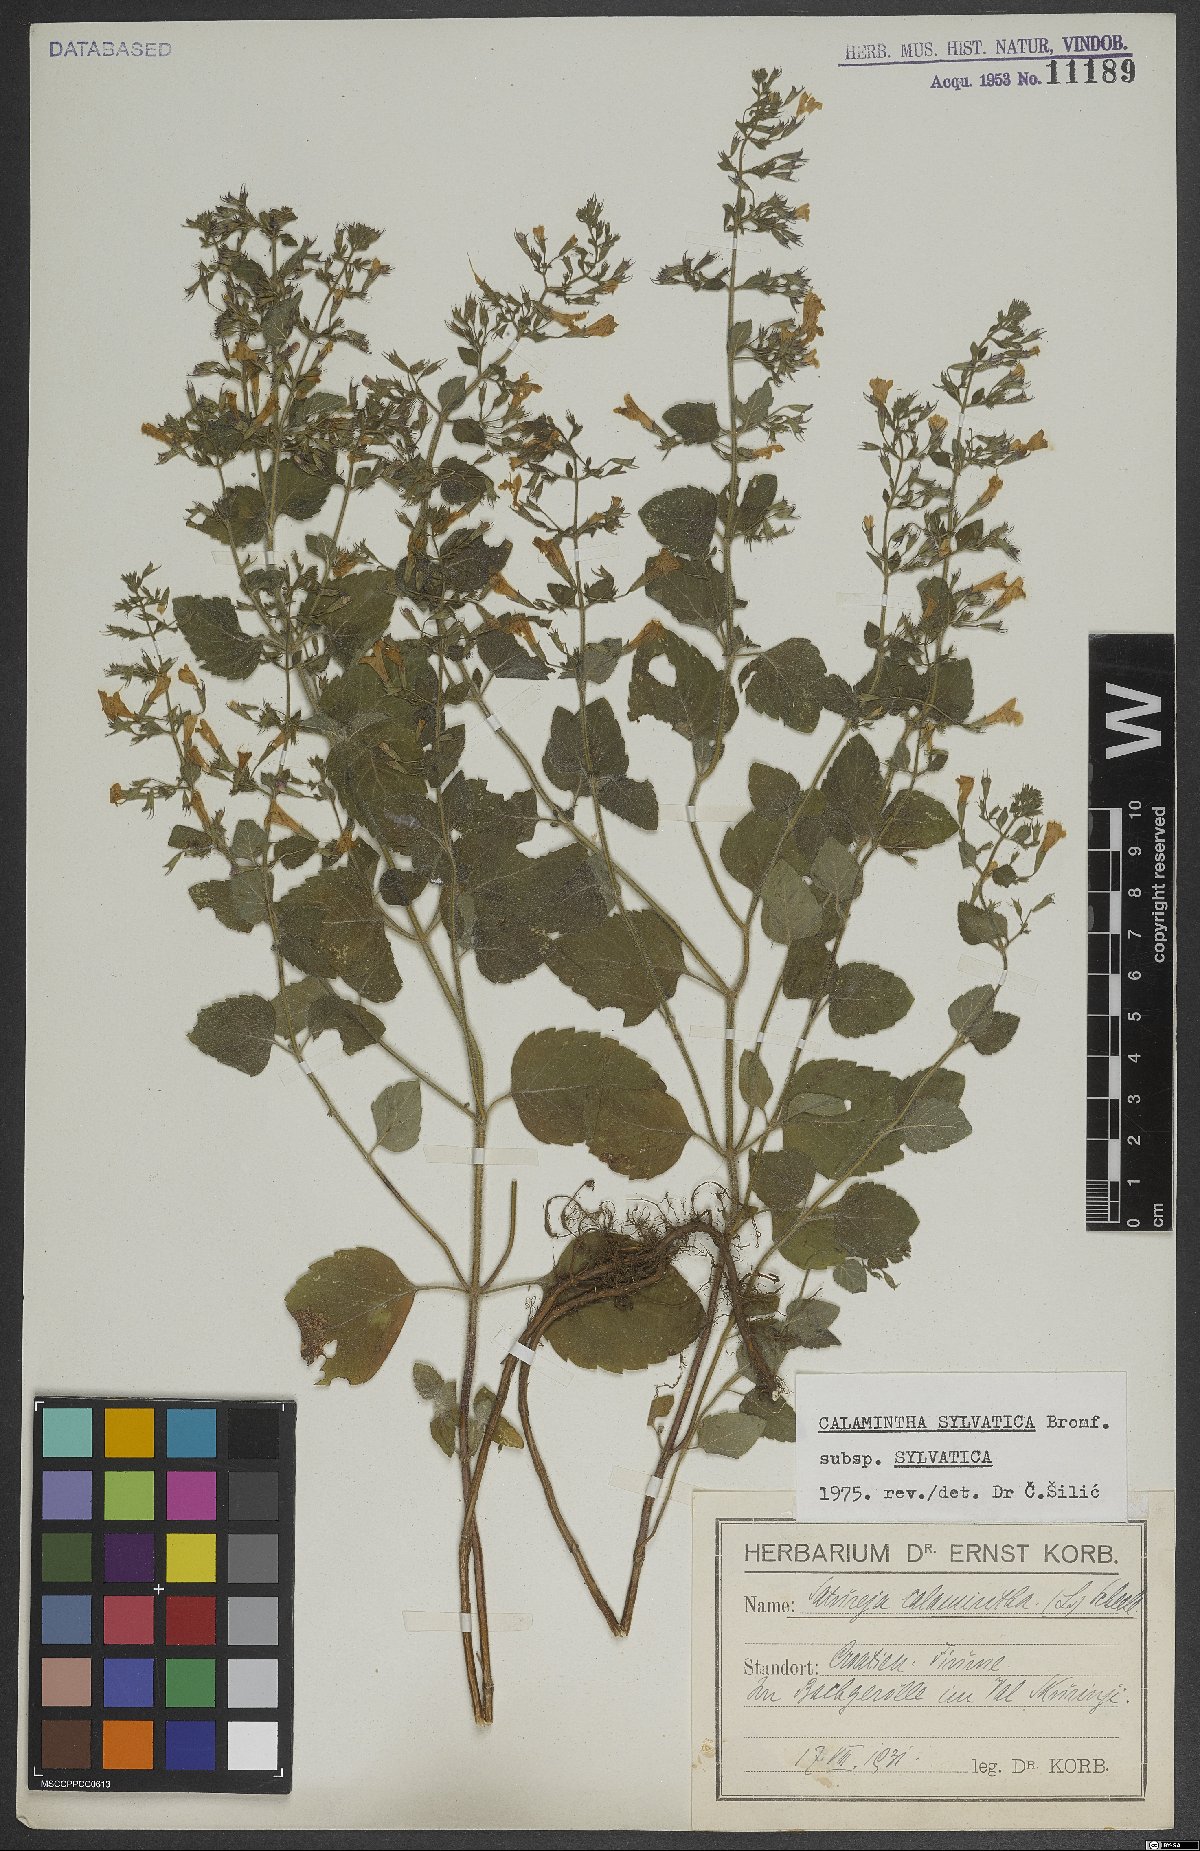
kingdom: Plantae
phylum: Tracheophyta
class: Magnoliopsida
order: Lamiales
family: Lamiaceae
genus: Clinopodium
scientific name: Clinopodium menthifolium
